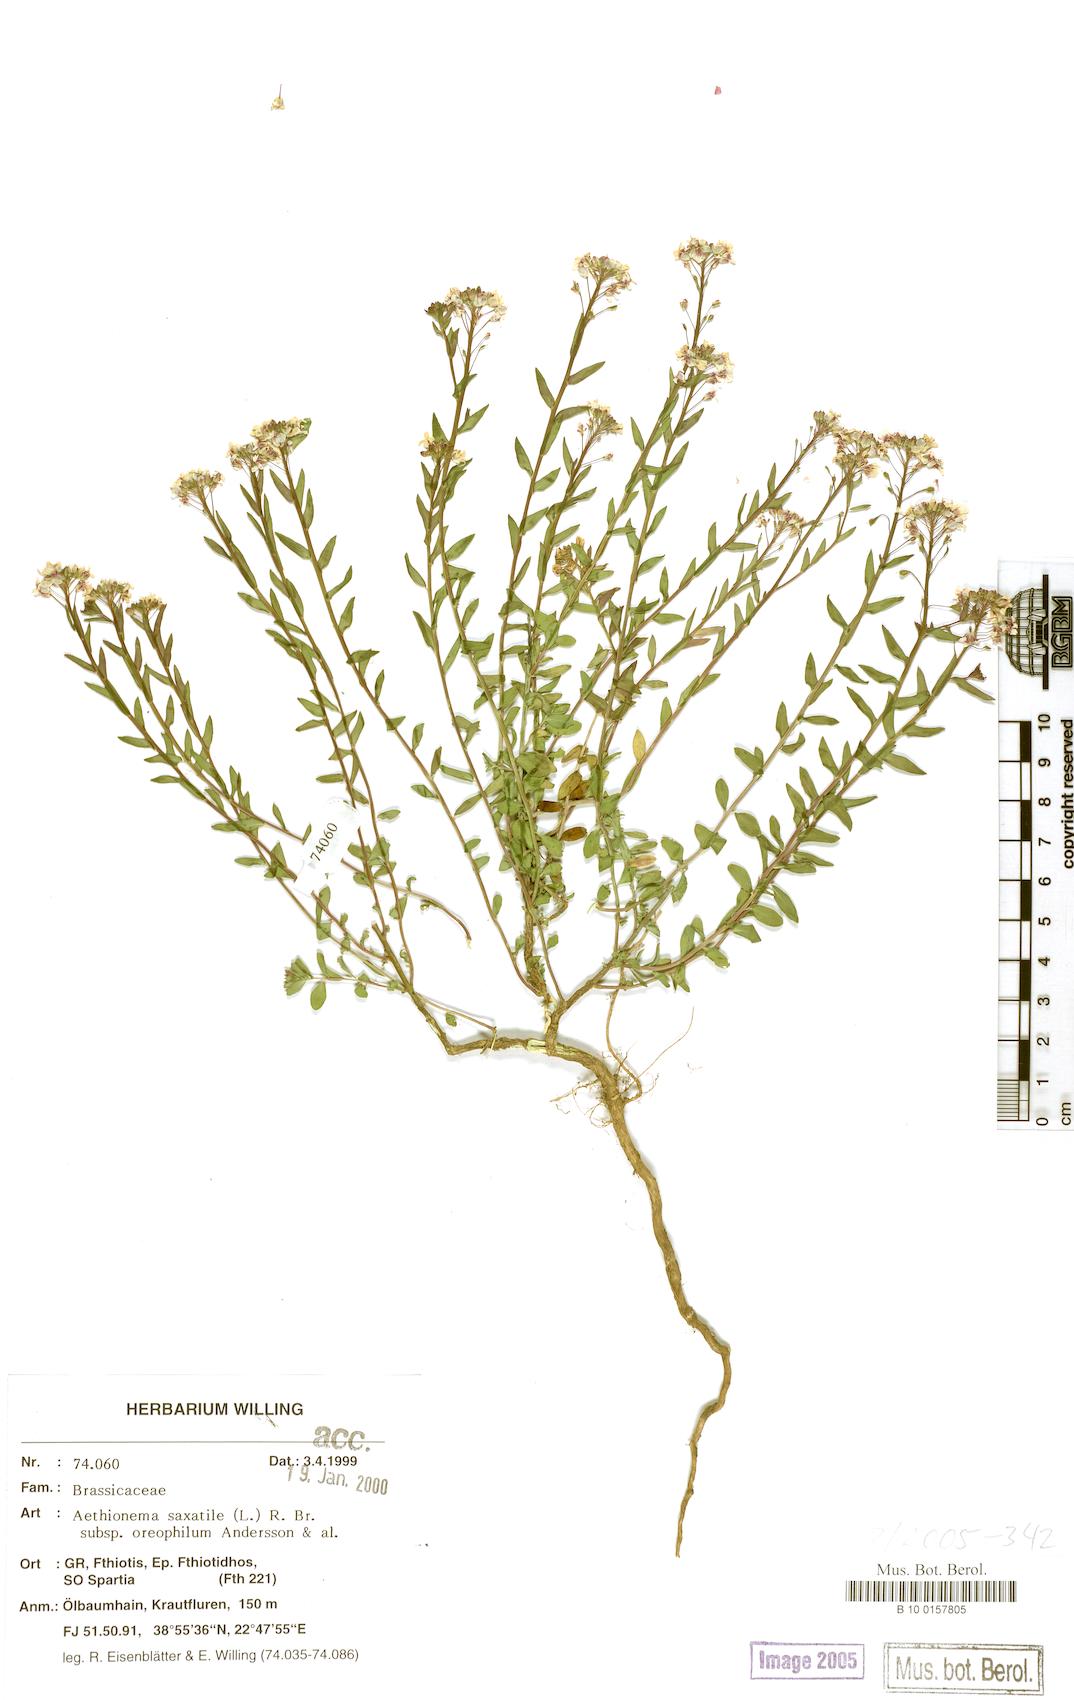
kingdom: Plantae
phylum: Tracheophyta
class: Magnoliopsida
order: Brassicales
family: Brassicaceae
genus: Aethionema
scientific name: Aethionema saxatile
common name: Burnt candytuft
